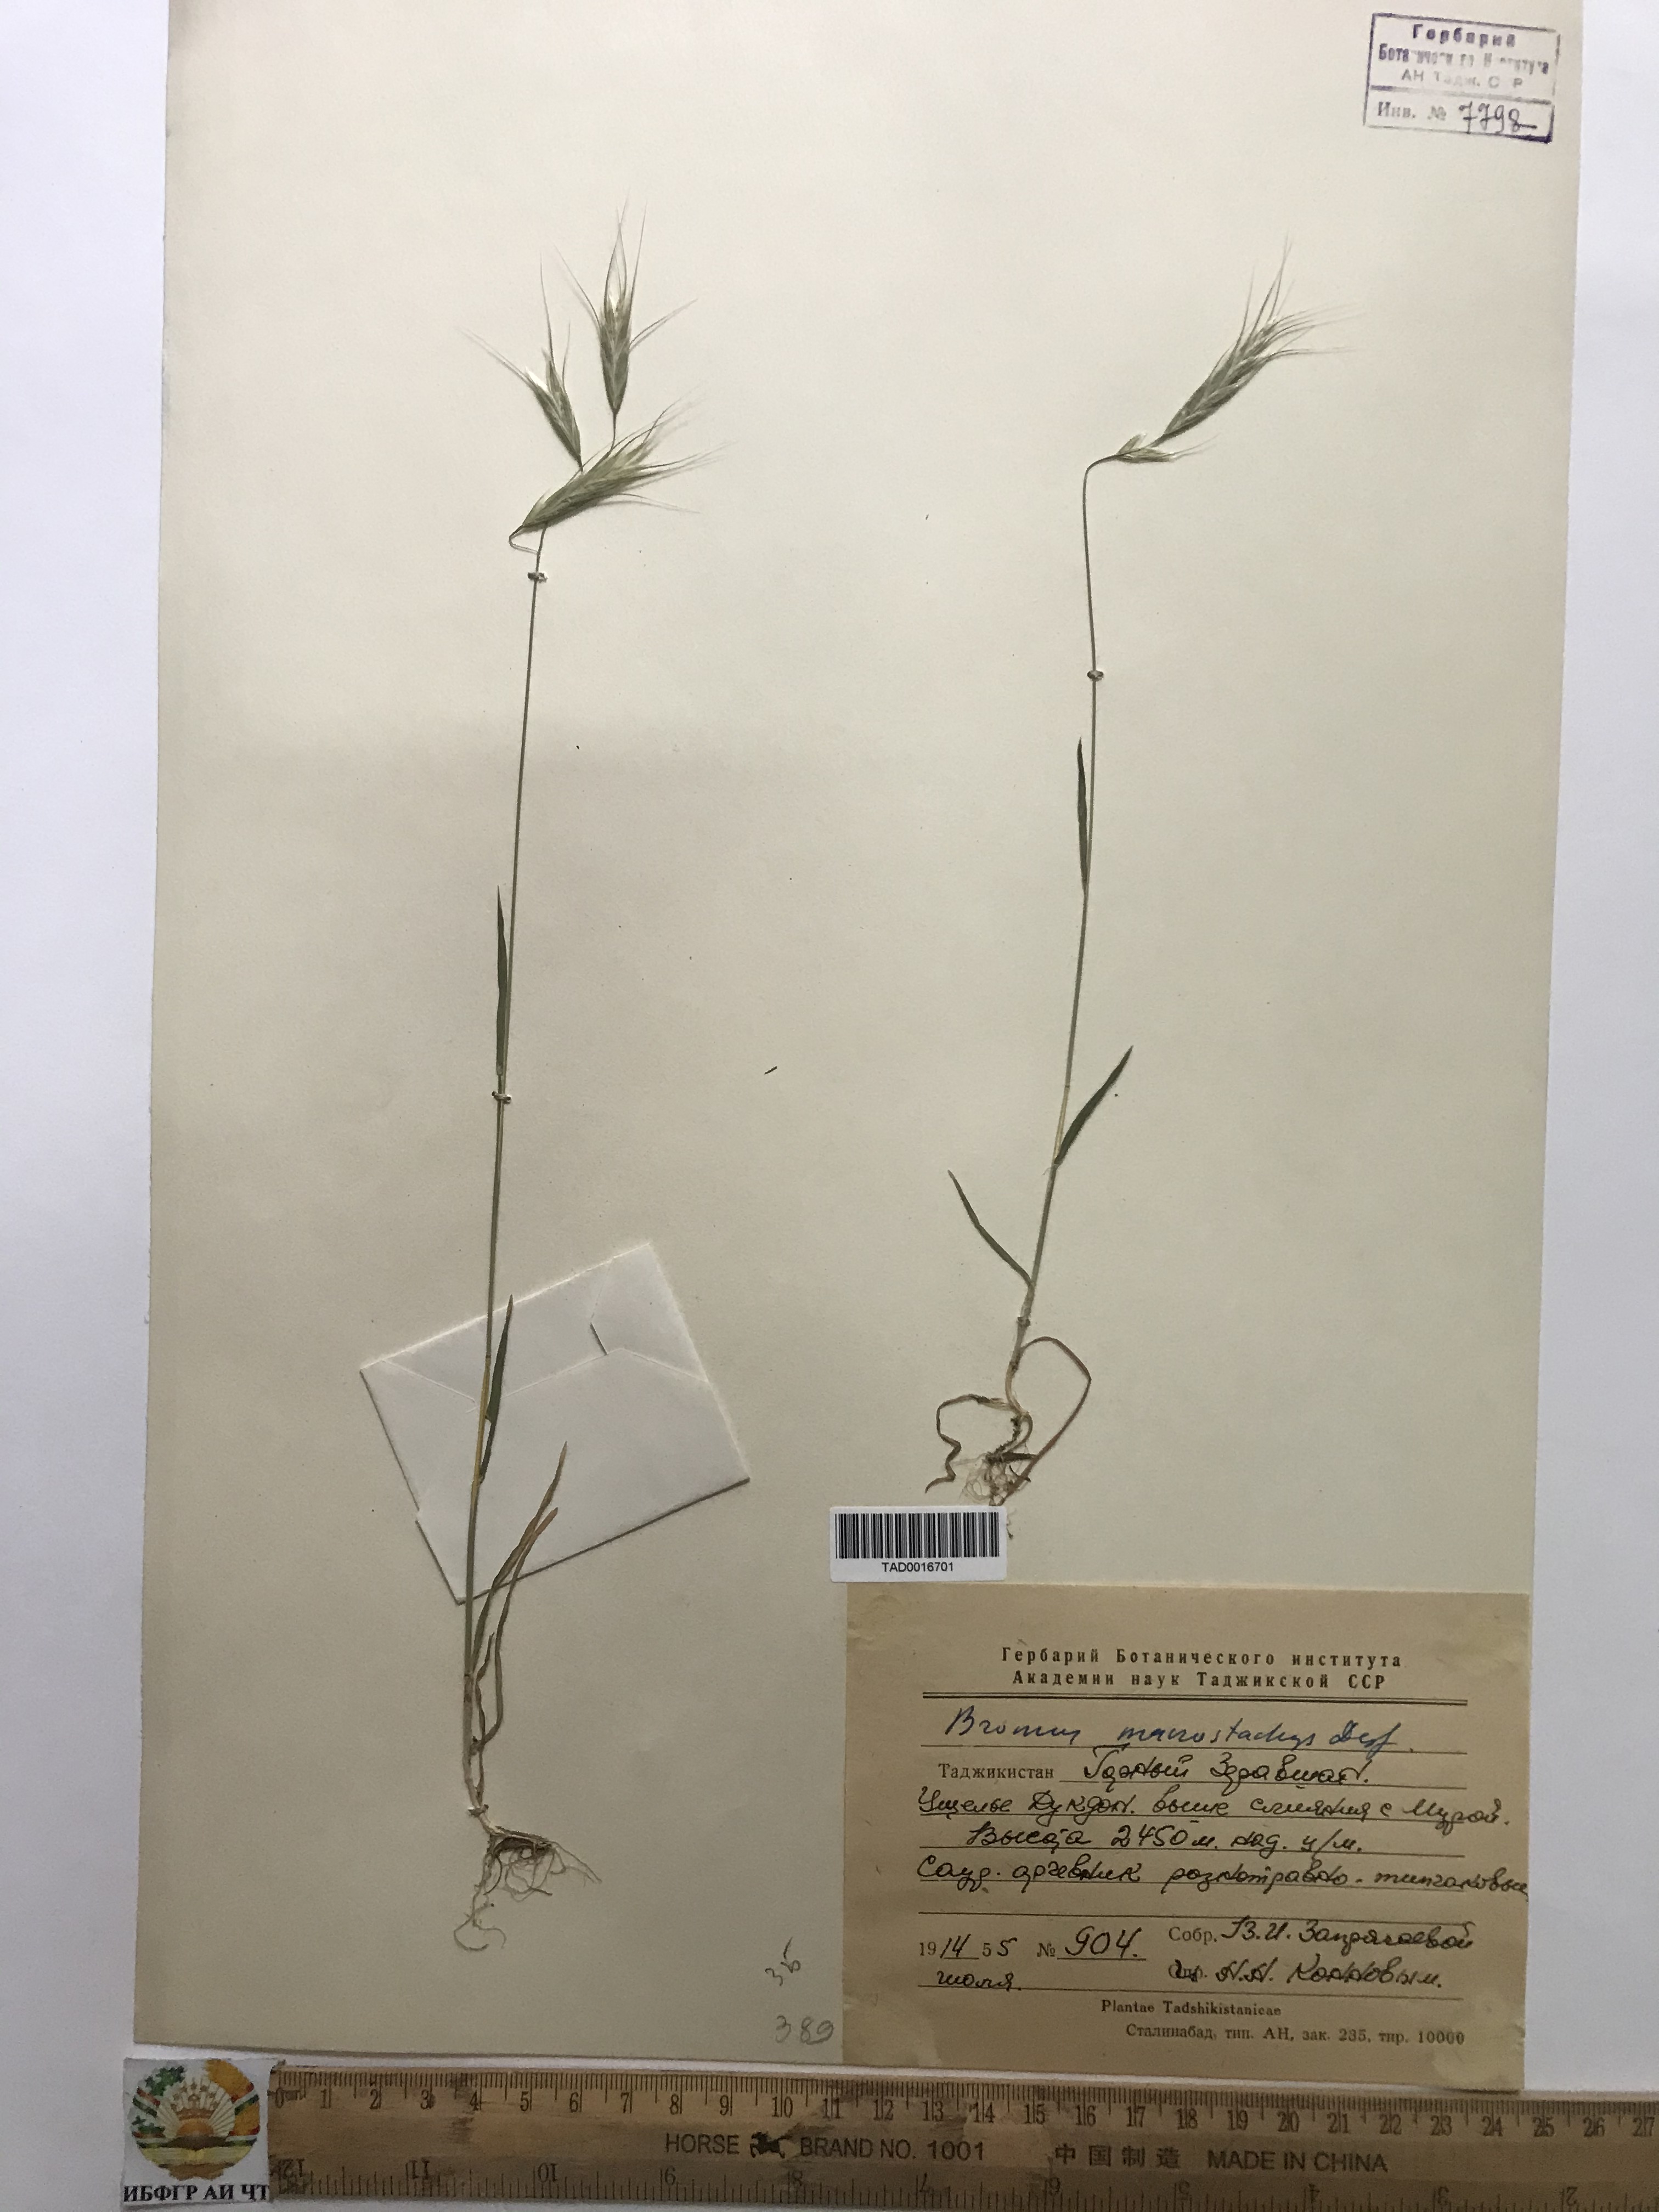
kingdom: Plantae
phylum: Tracheophyta
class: Liliopsida
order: Poales
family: Poaceae
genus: Bromus
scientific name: Bromus lanceolatus
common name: Mediterranean brome
